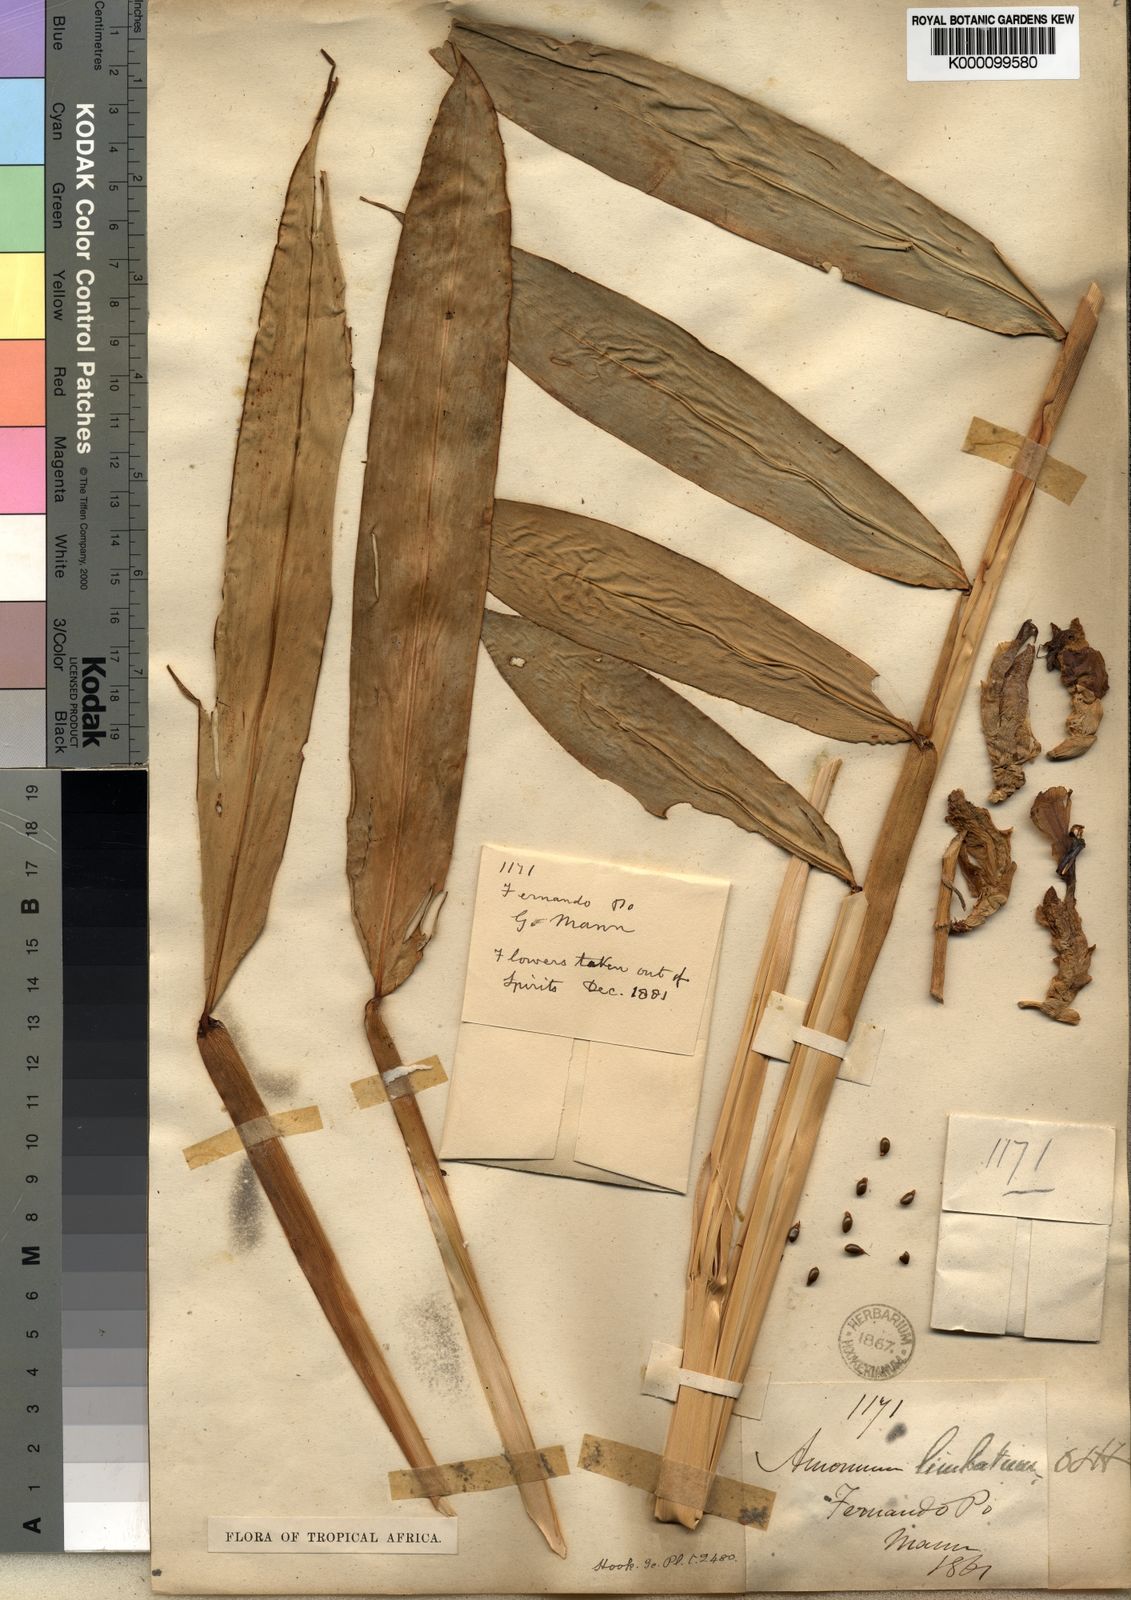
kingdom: Plantae
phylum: Tracheophyta
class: Liliopsida
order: Zingiberales
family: Zingiberaceae
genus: Aframomum
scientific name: Aframomum limbatum
